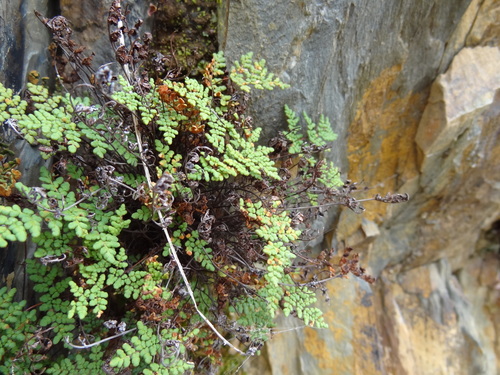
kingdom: Plantae
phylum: Tracheophyta
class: Polypodiopsida
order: Polypodiales
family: Pteridaceae
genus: Oeosporangium
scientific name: Oeosporangium hispanicum
